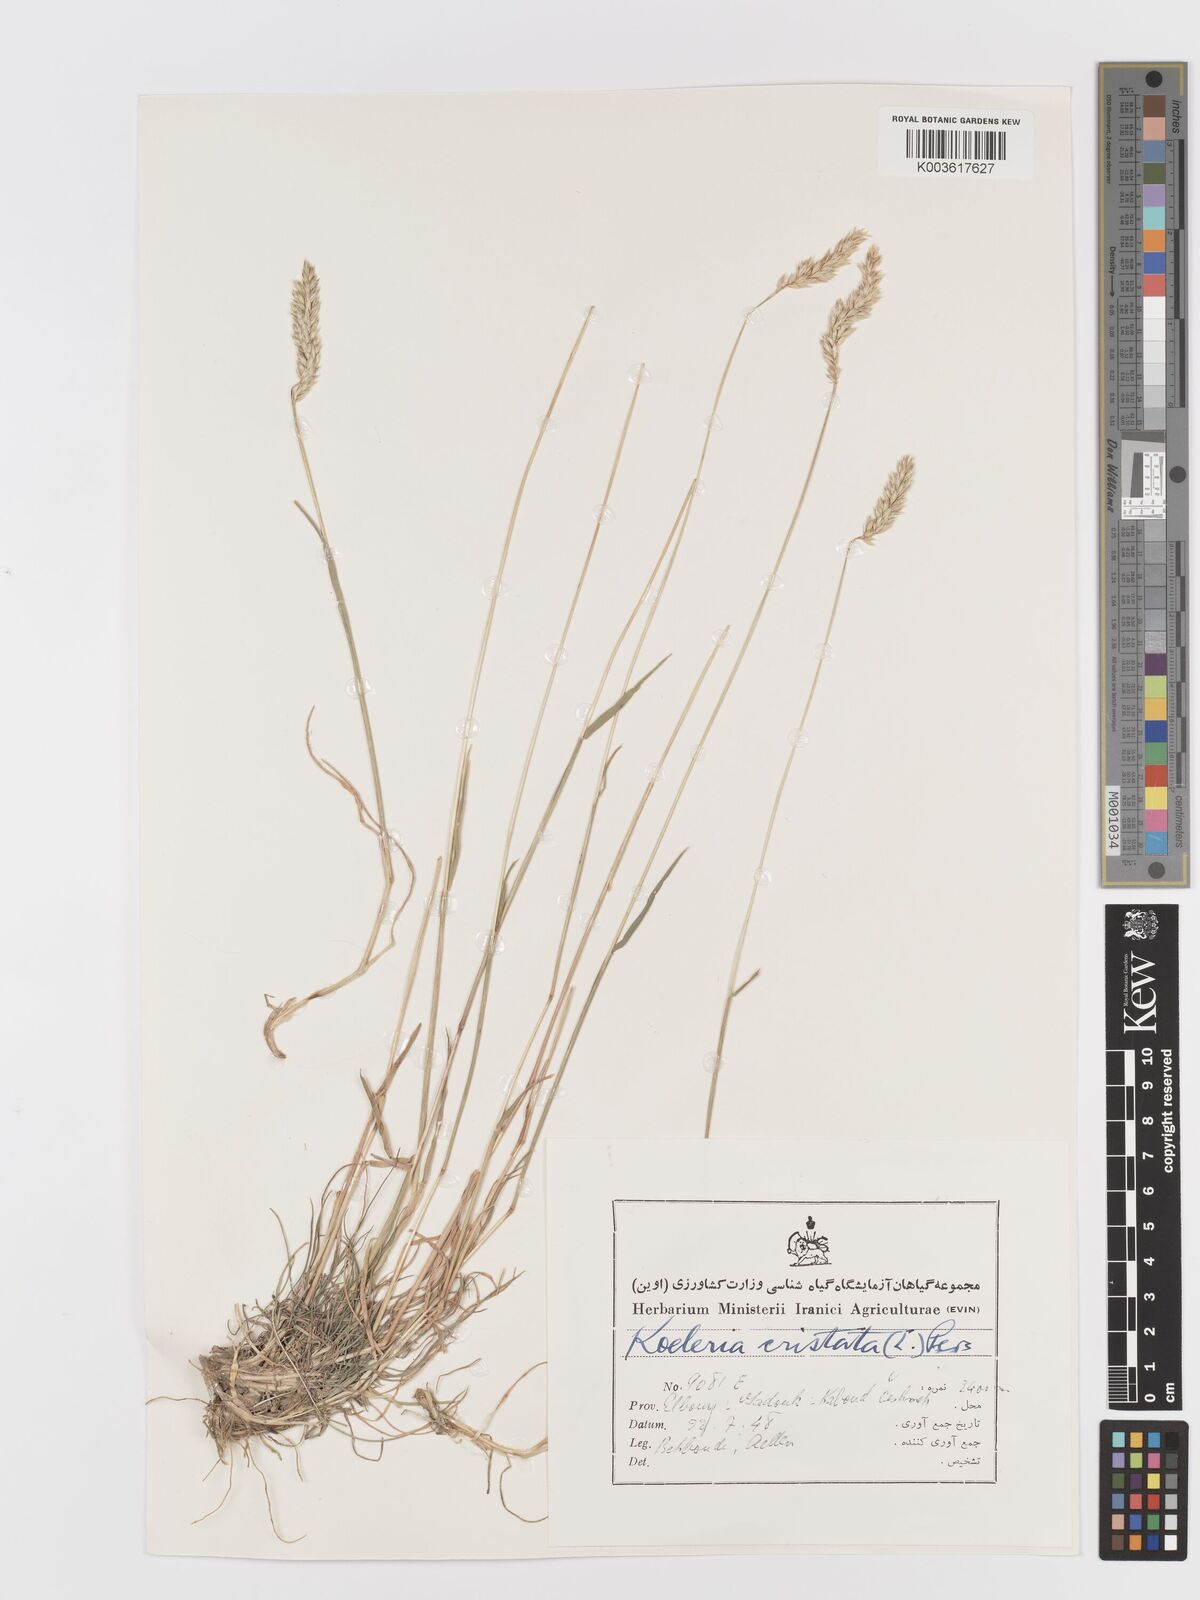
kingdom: Plantae
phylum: Tracheophyta
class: Liliopsida
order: Poales
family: Poaceae
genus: Koeleria
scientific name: Koeleria macrantha
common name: Crested hair-grass
